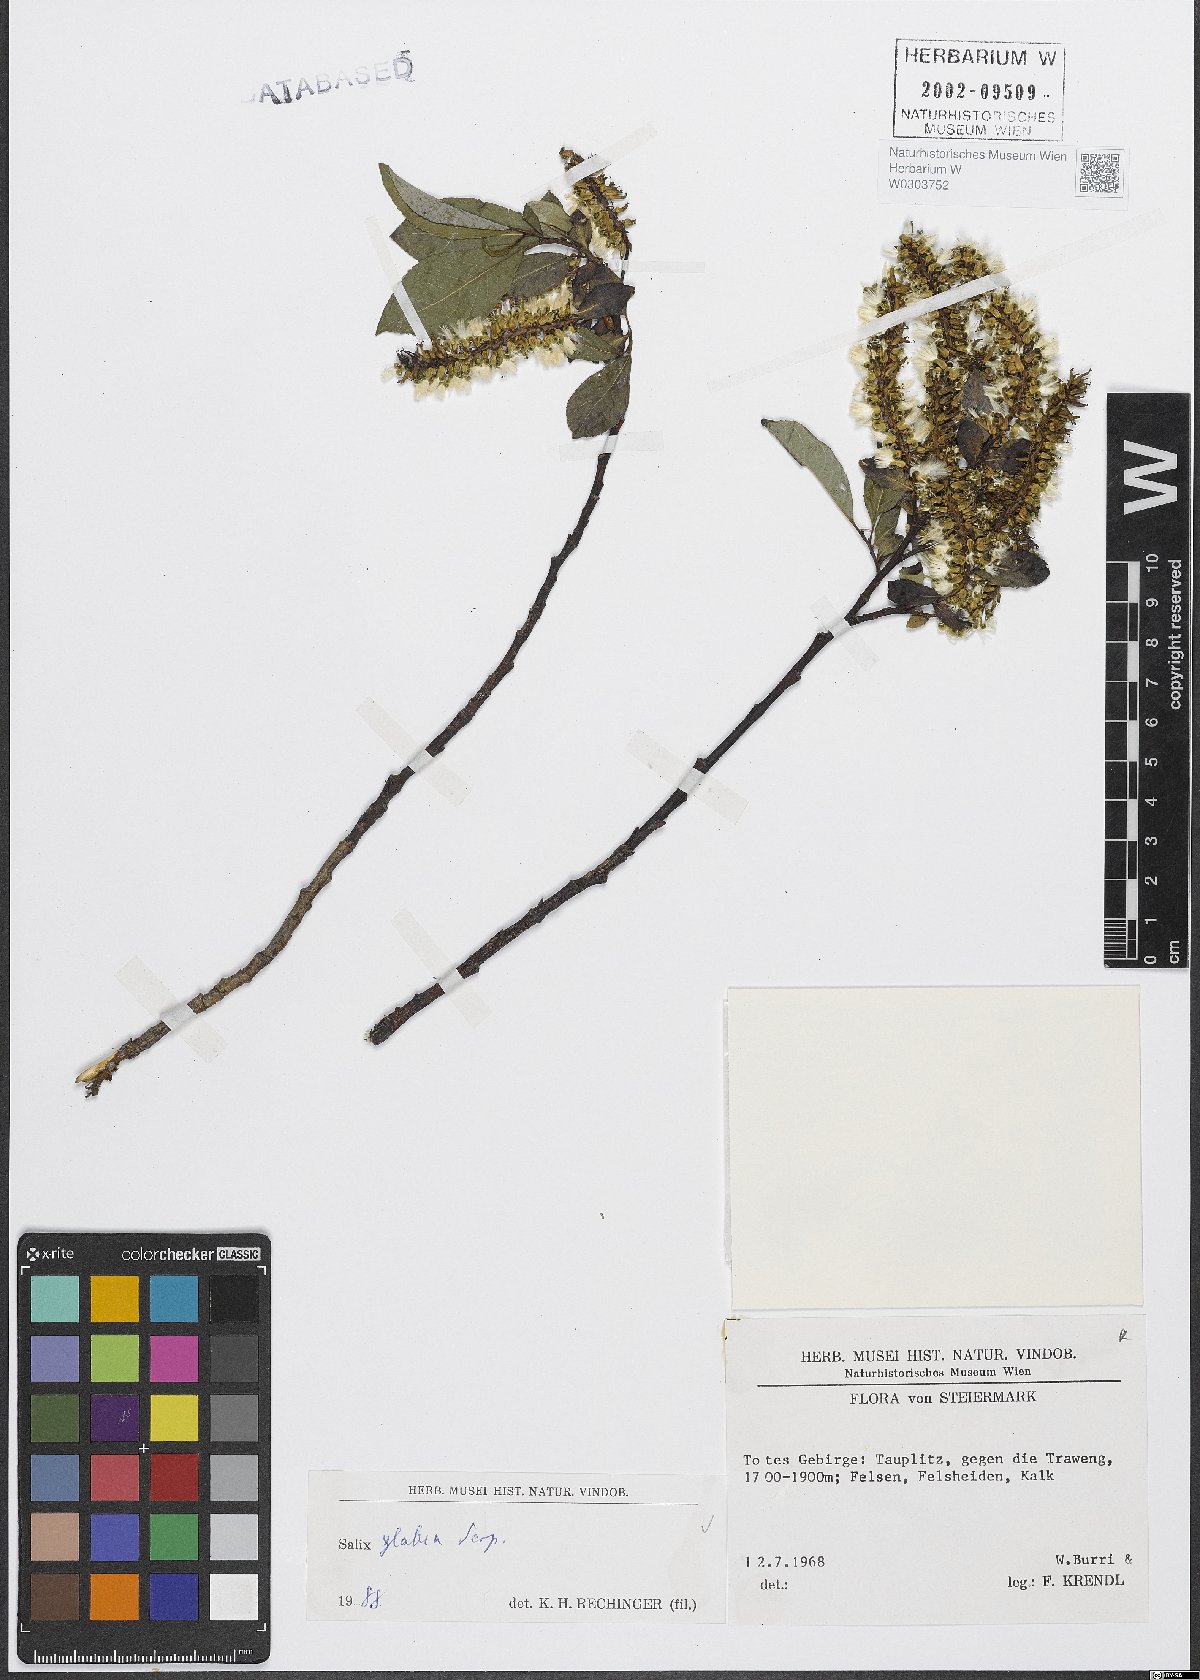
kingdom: Plantae
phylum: Tracheophyta
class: Magnoliopsida
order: Malpighiales
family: Salicaceae
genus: Salix
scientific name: Salix glabra
